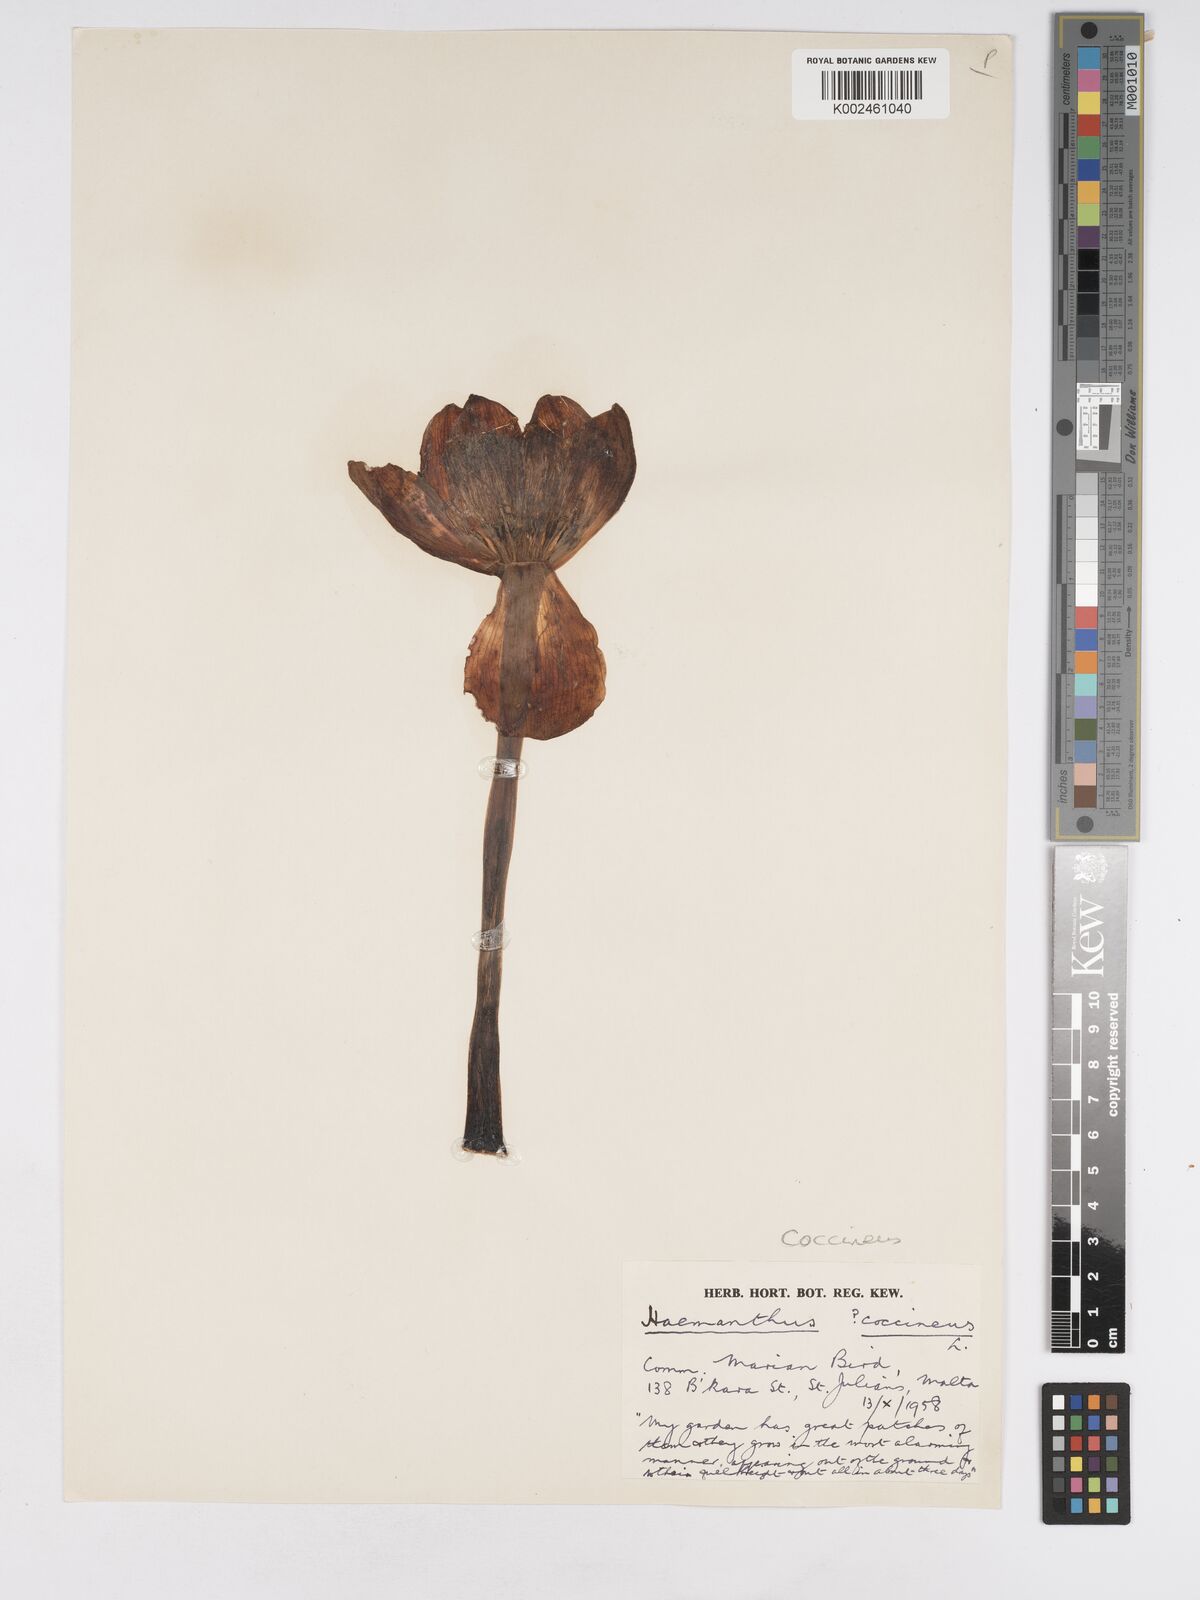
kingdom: Plantae
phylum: Tracheophyta
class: Liliopsida
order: Asparagales
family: Amaryllidaceae
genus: Haemanthus
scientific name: Haemanthus coccineus
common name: Cape-tulip
